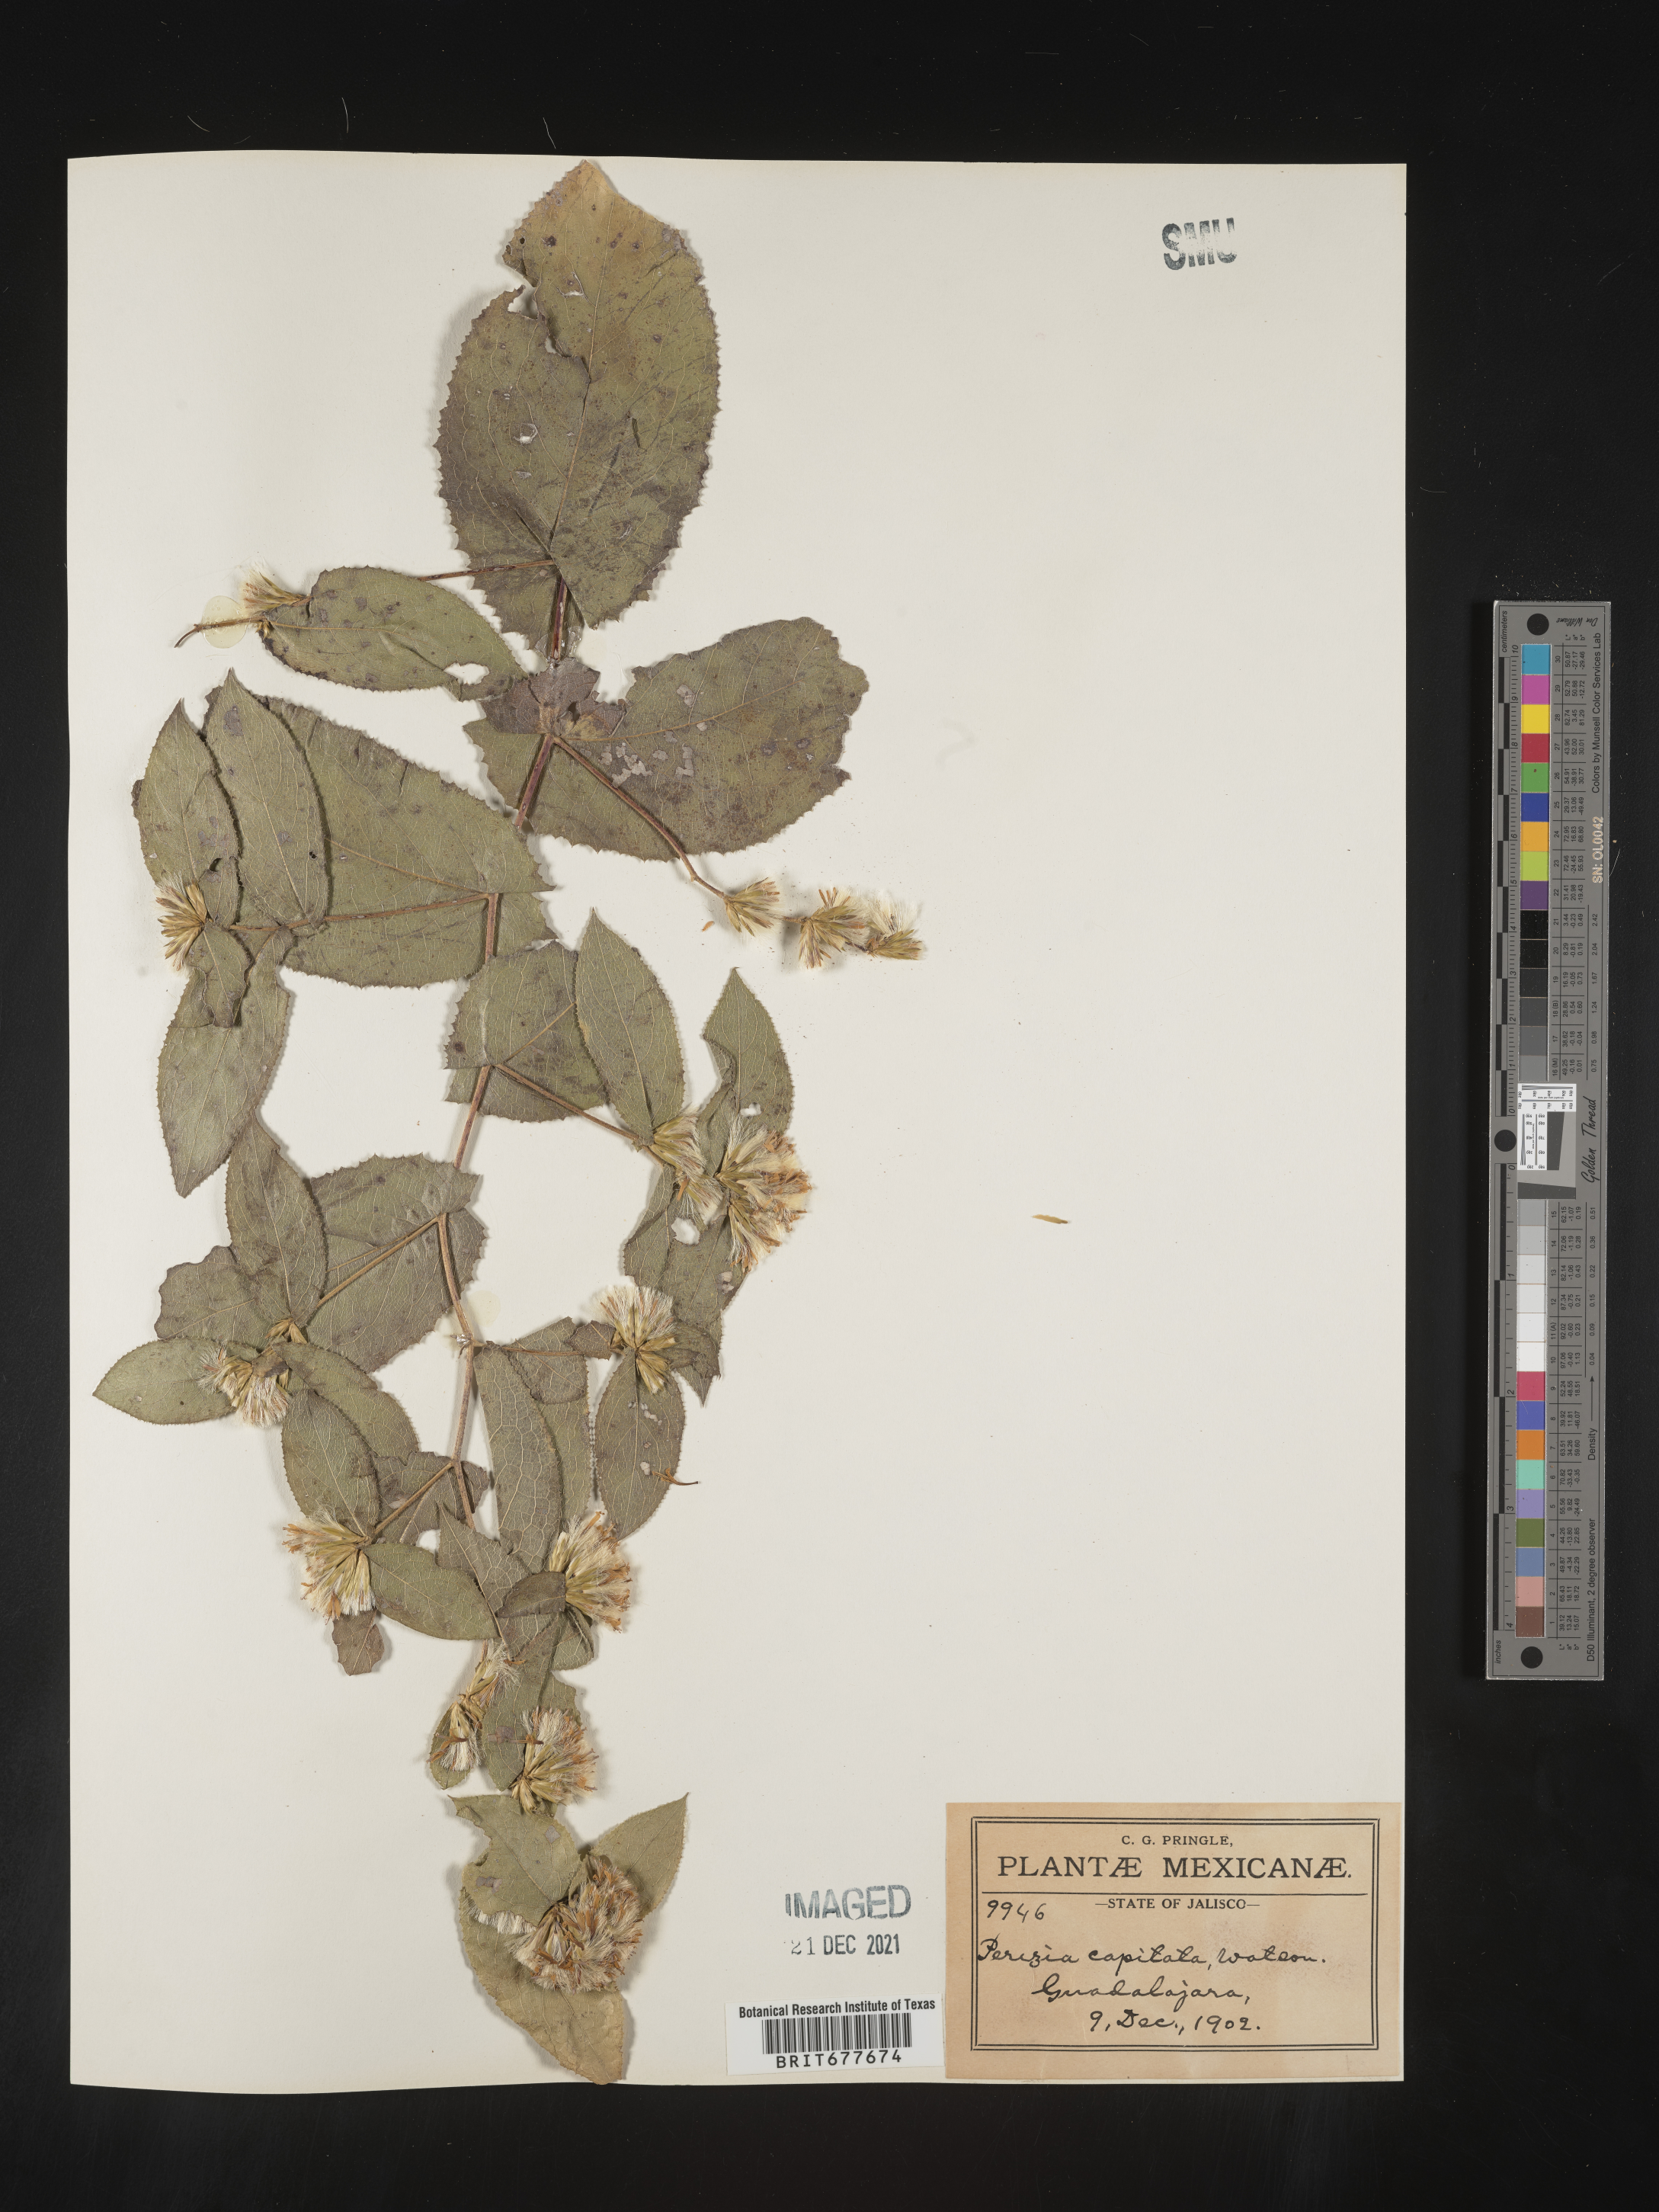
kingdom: Plantae
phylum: Tracheophyta
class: Magnoliopsida
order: Asterales
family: Asteraceae
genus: Perezia
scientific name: Perezia
